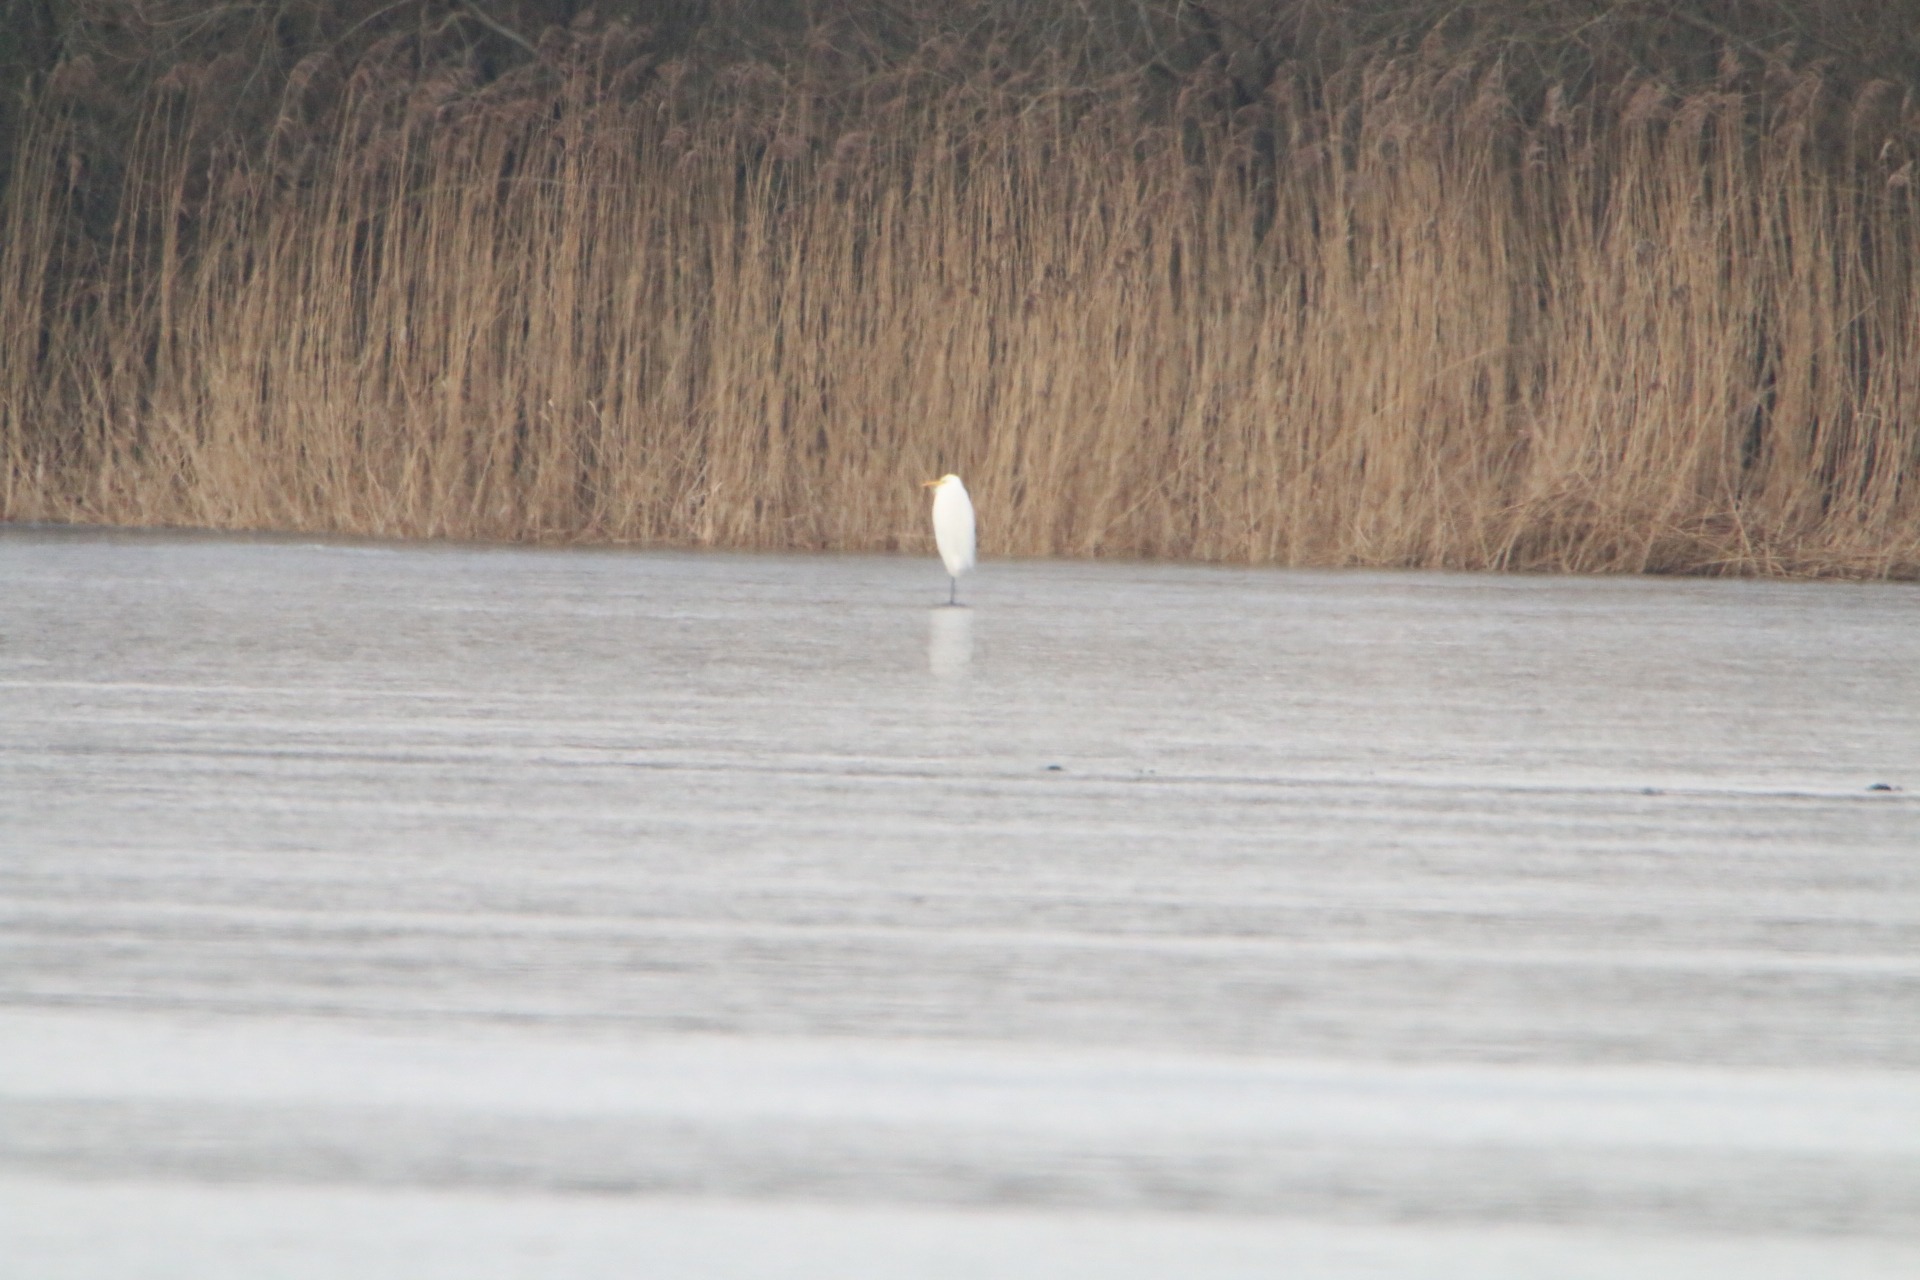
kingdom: Animalia
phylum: Chordata
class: Aves
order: Pelecaniformes
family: Ardeidae
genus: Ardea
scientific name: Ardea alba
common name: Sølvhejre
